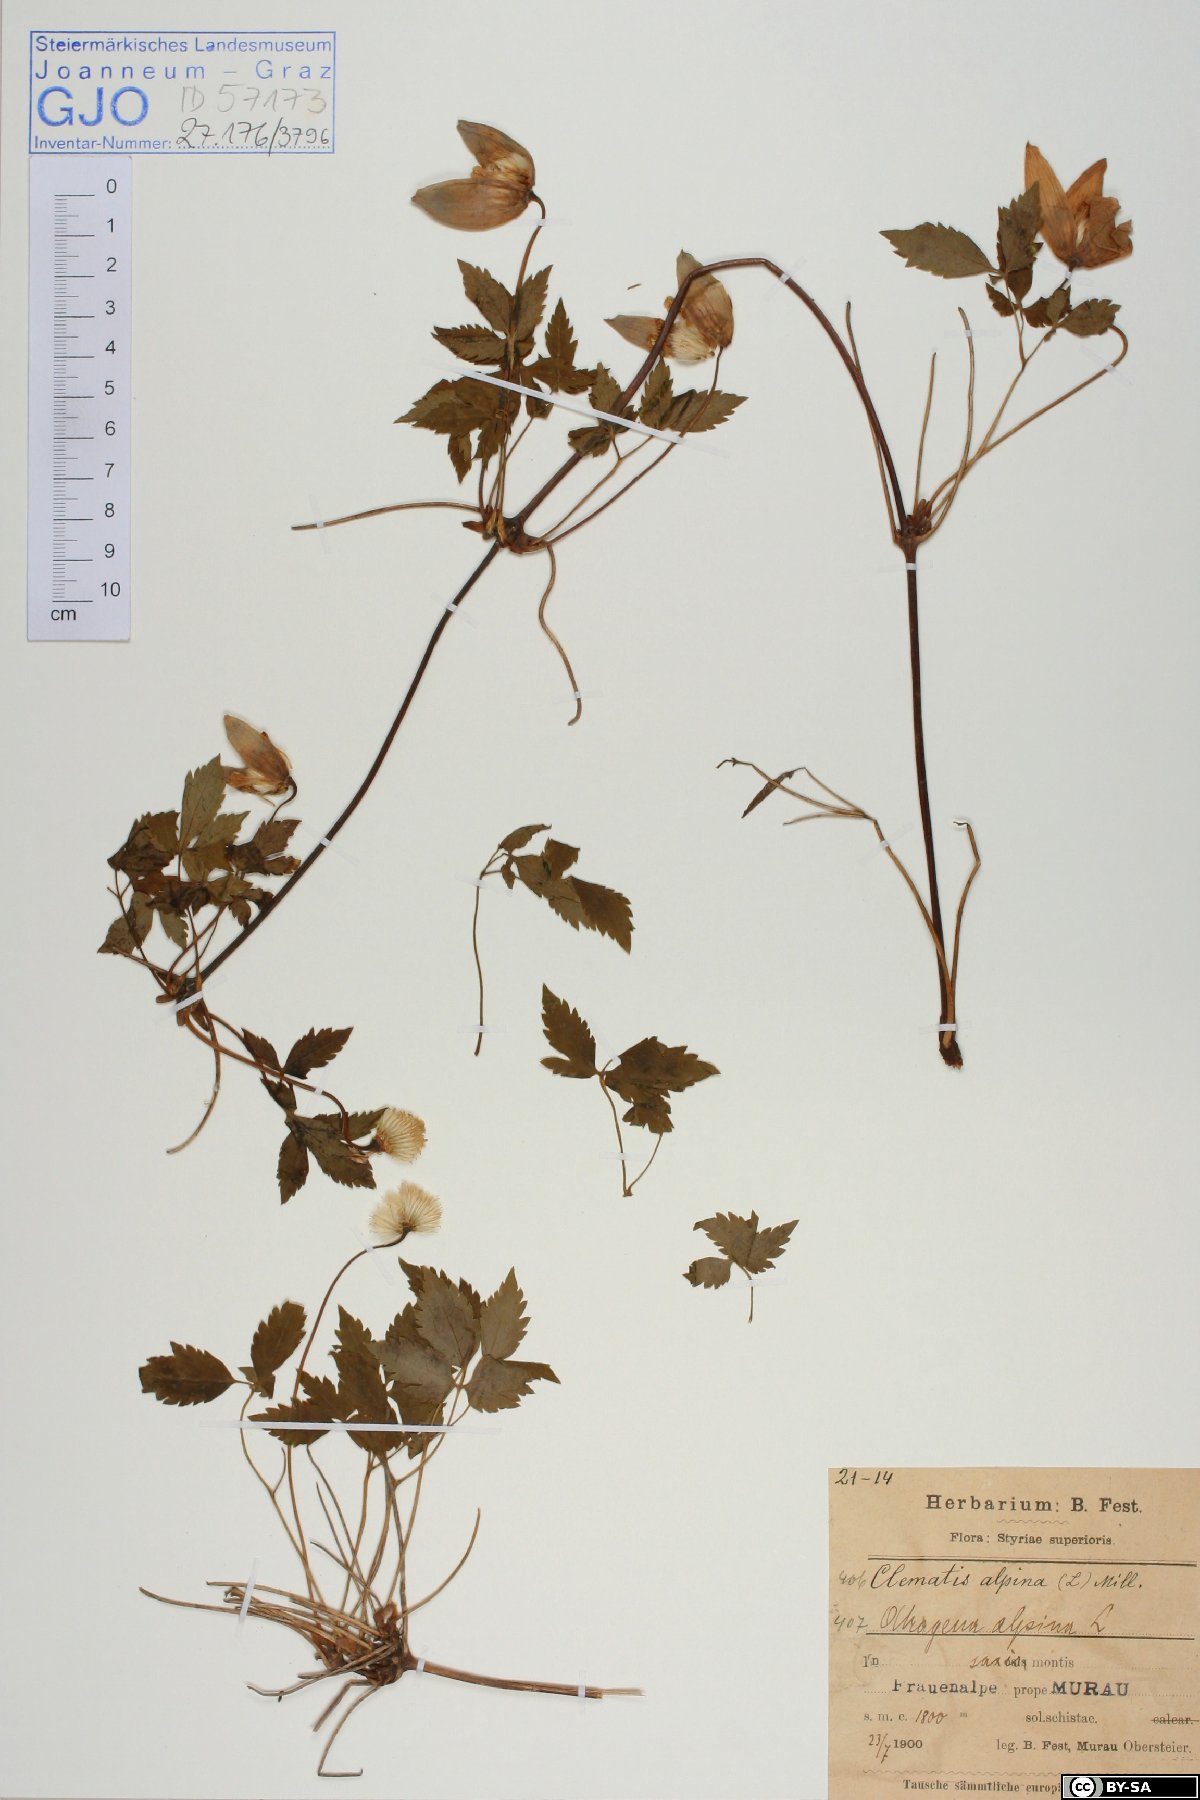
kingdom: Plantae
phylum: Tracheophyta
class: Magnoliopsida
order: Ranunculales
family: Ranunculaceae
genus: Clematis
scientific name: Clematis alpina
